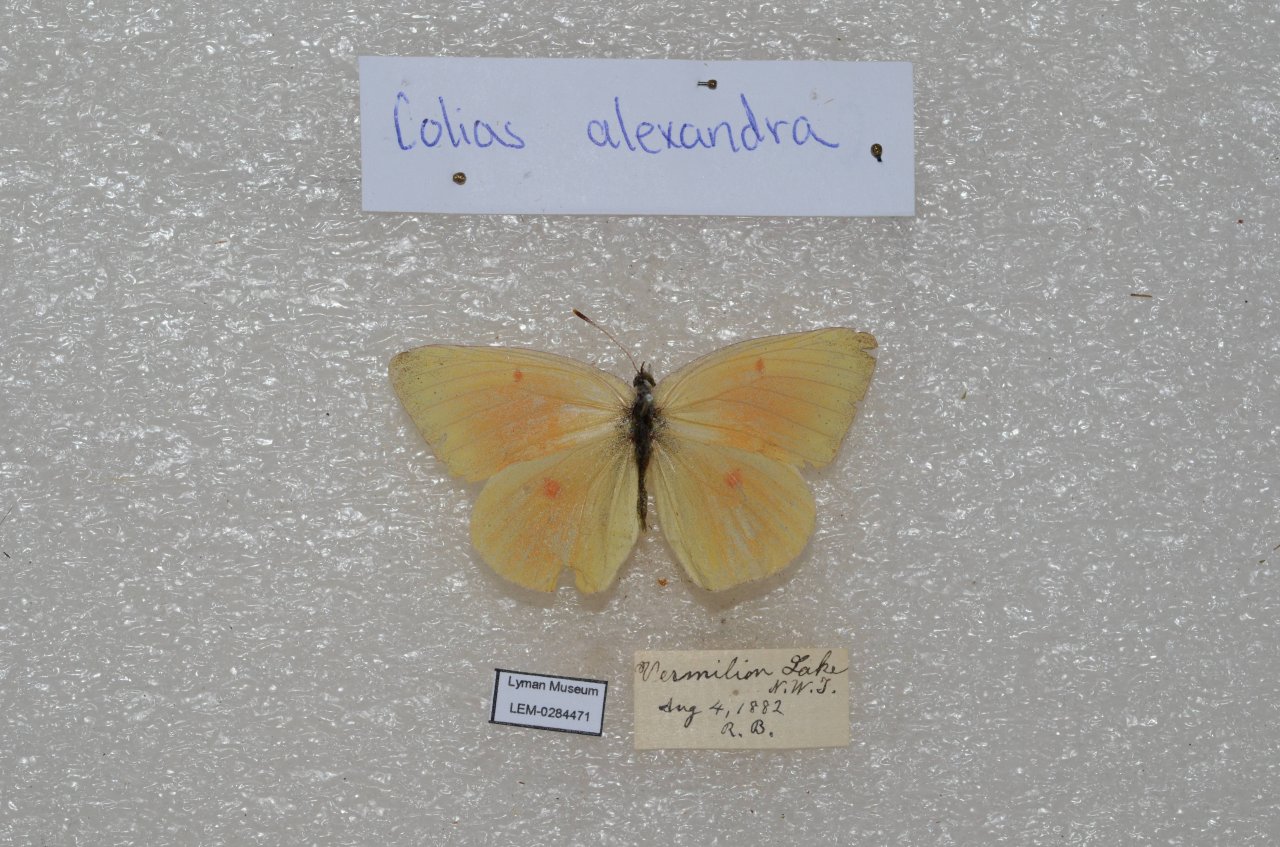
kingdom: Animalia
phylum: Arthropoda
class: Insecta
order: Lepidoptera
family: Pieridae
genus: Colias
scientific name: Colias christina
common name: Christina Sulphur
